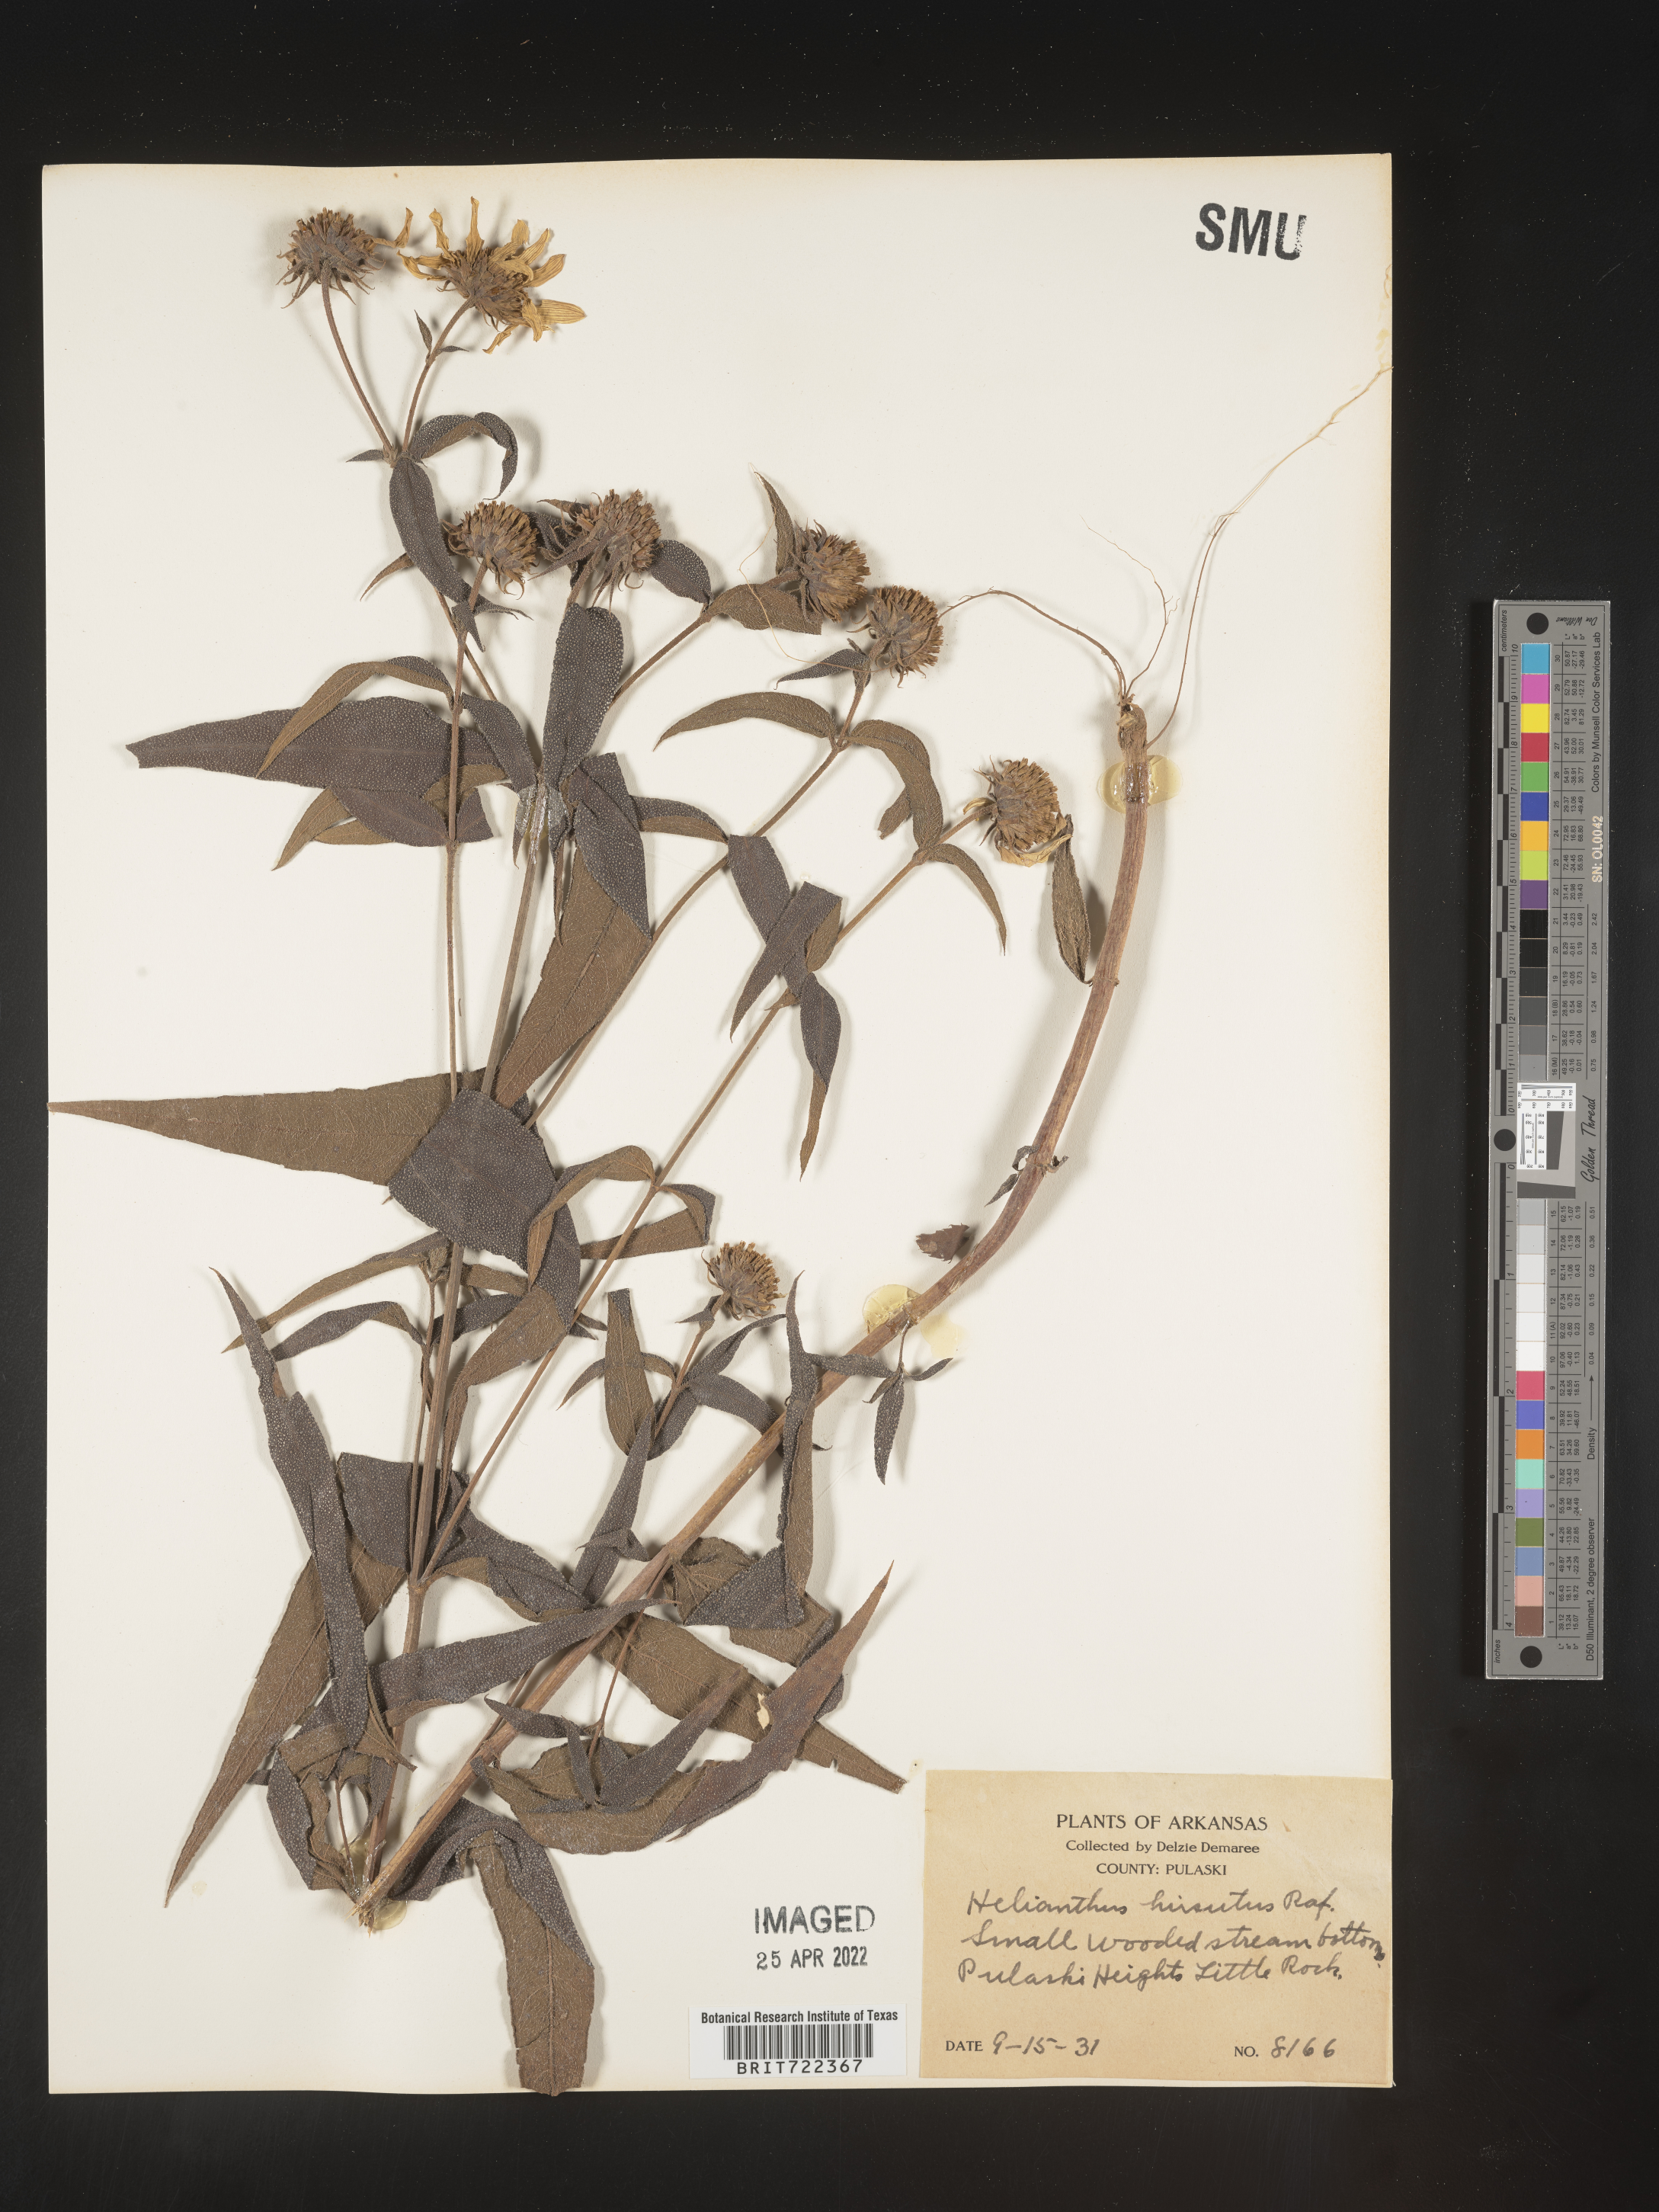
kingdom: Plantae
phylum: Tracheophyta
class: Magnoliopsida
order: Asterales
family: Asteraceae
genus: Helianthus
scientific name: Helianthus hirsutus
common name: Hairy sunflower
